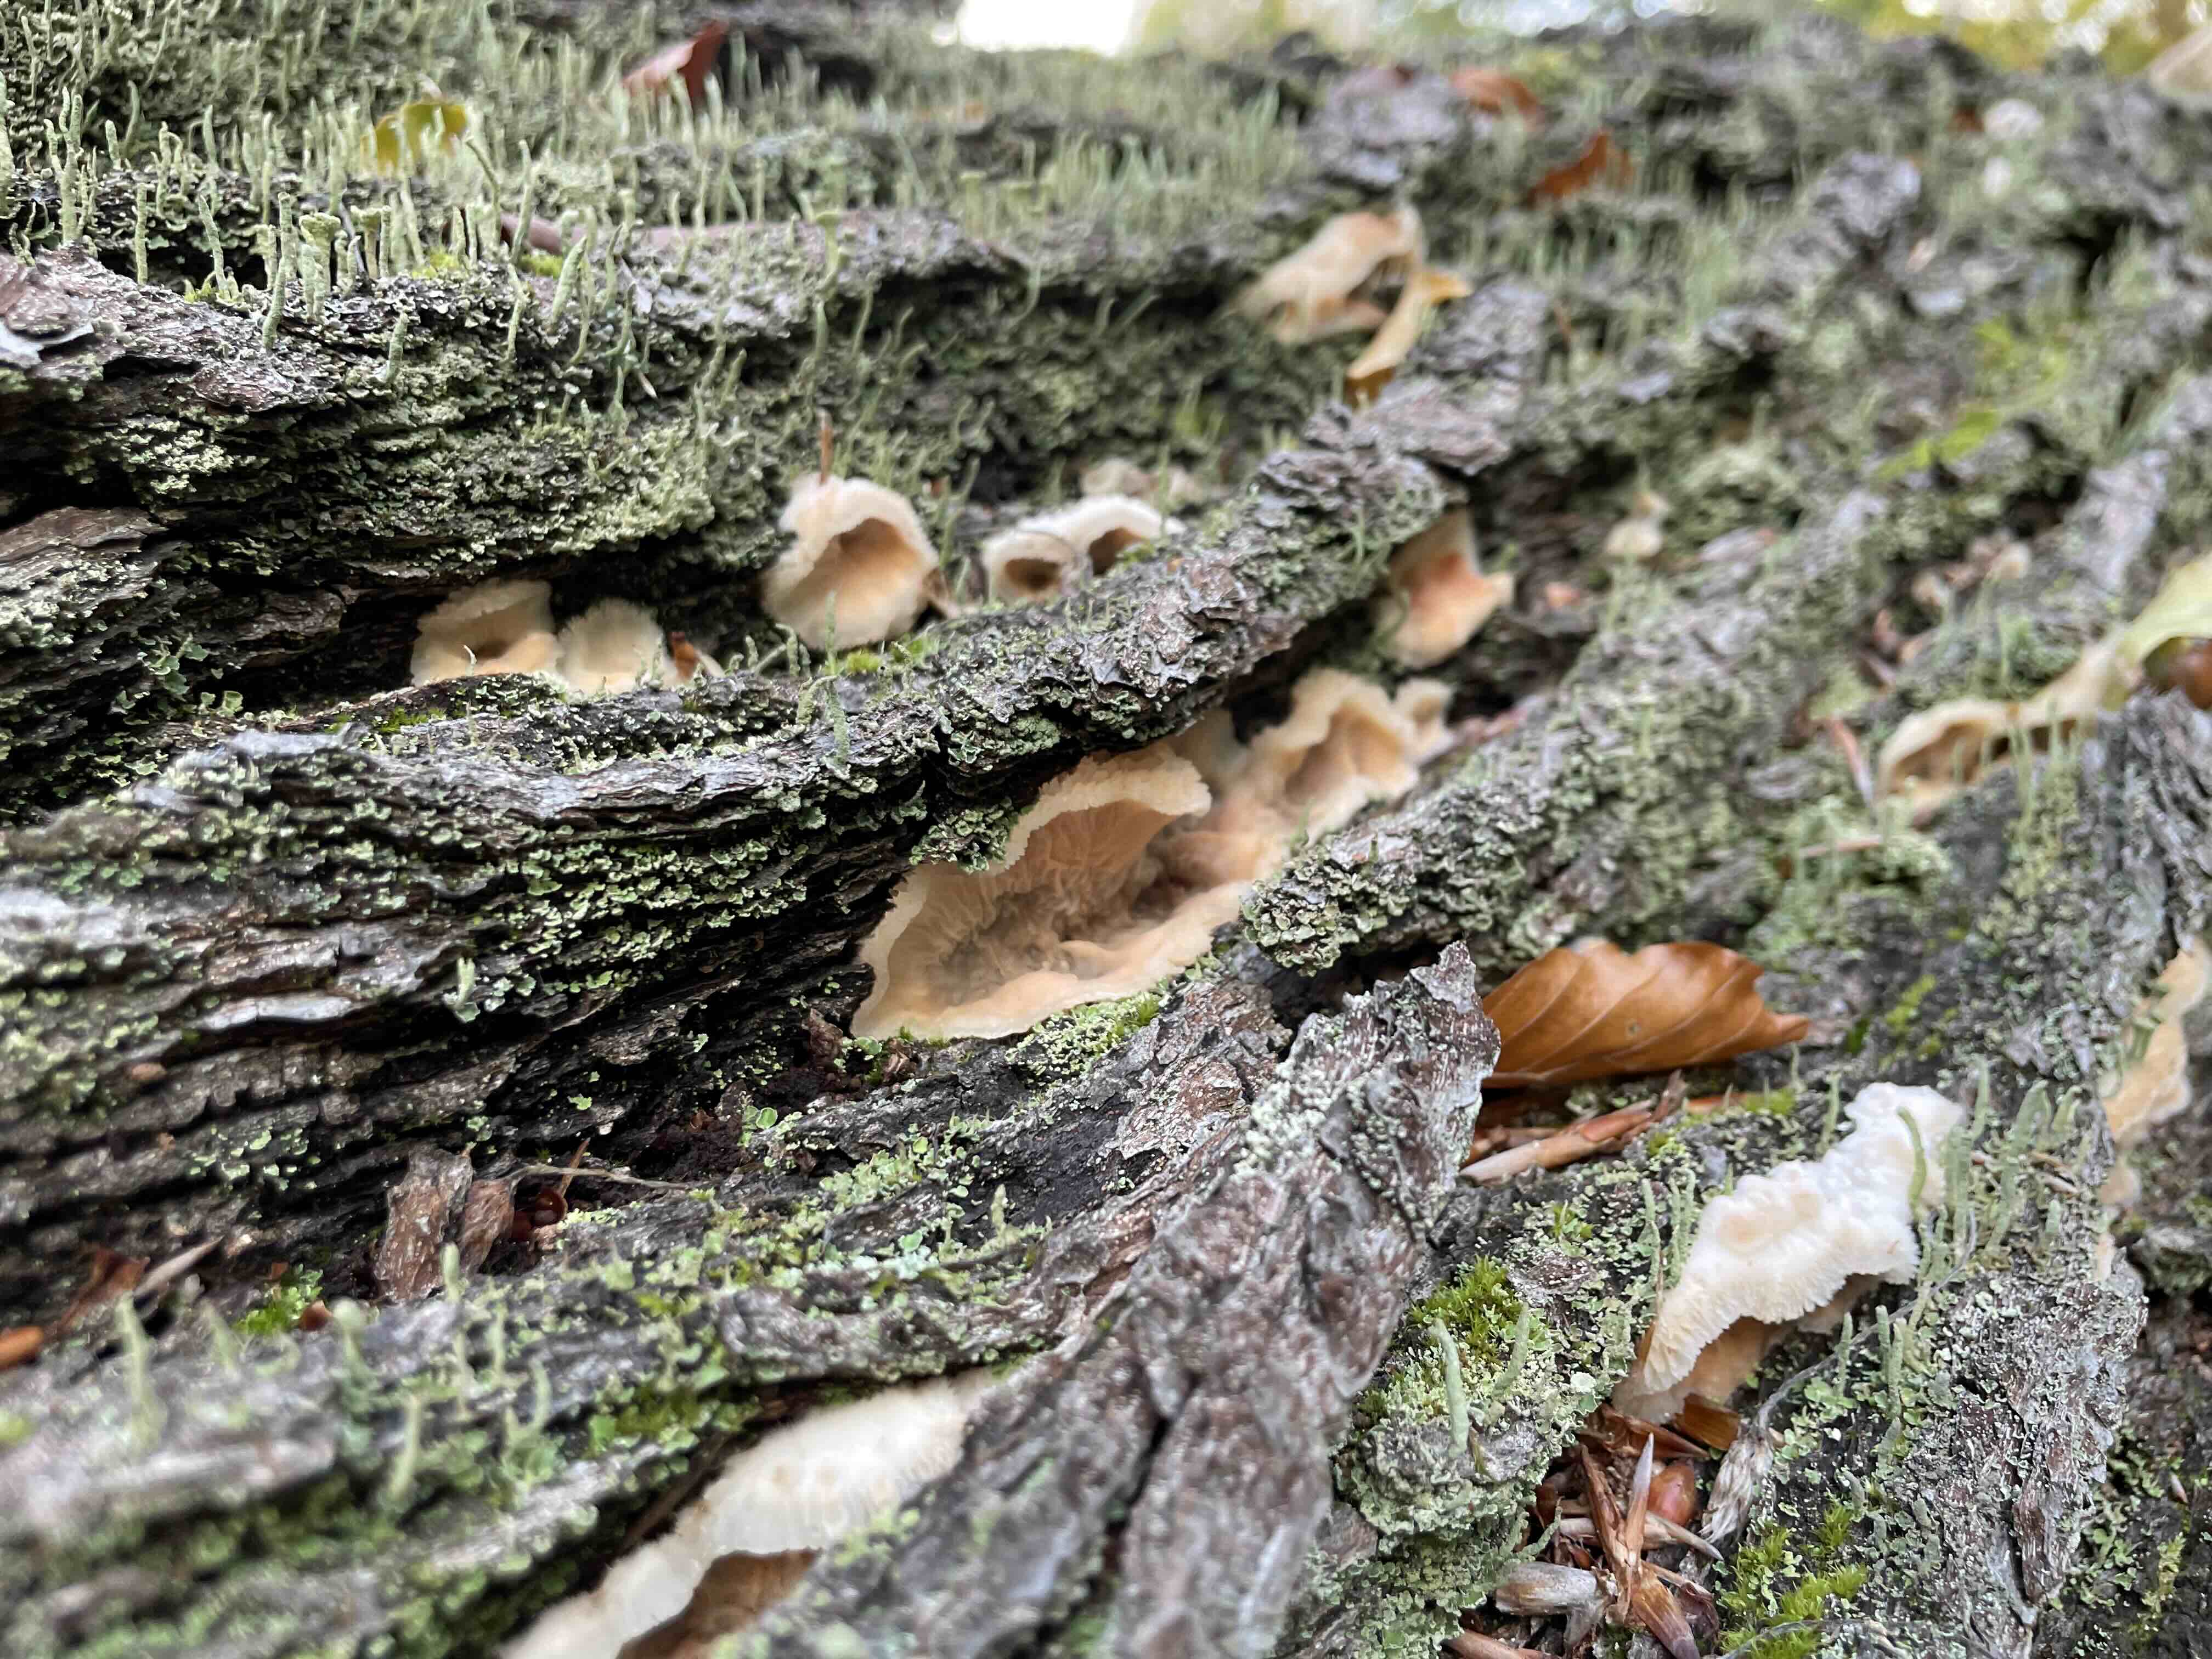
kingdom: Fungi
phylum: Basidiomycota
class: Agaricomycetes
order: Polyporales
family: Meruliaceae
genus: Phlebia
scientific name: Phlebia tremellosa
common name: bævrende åresvamp
